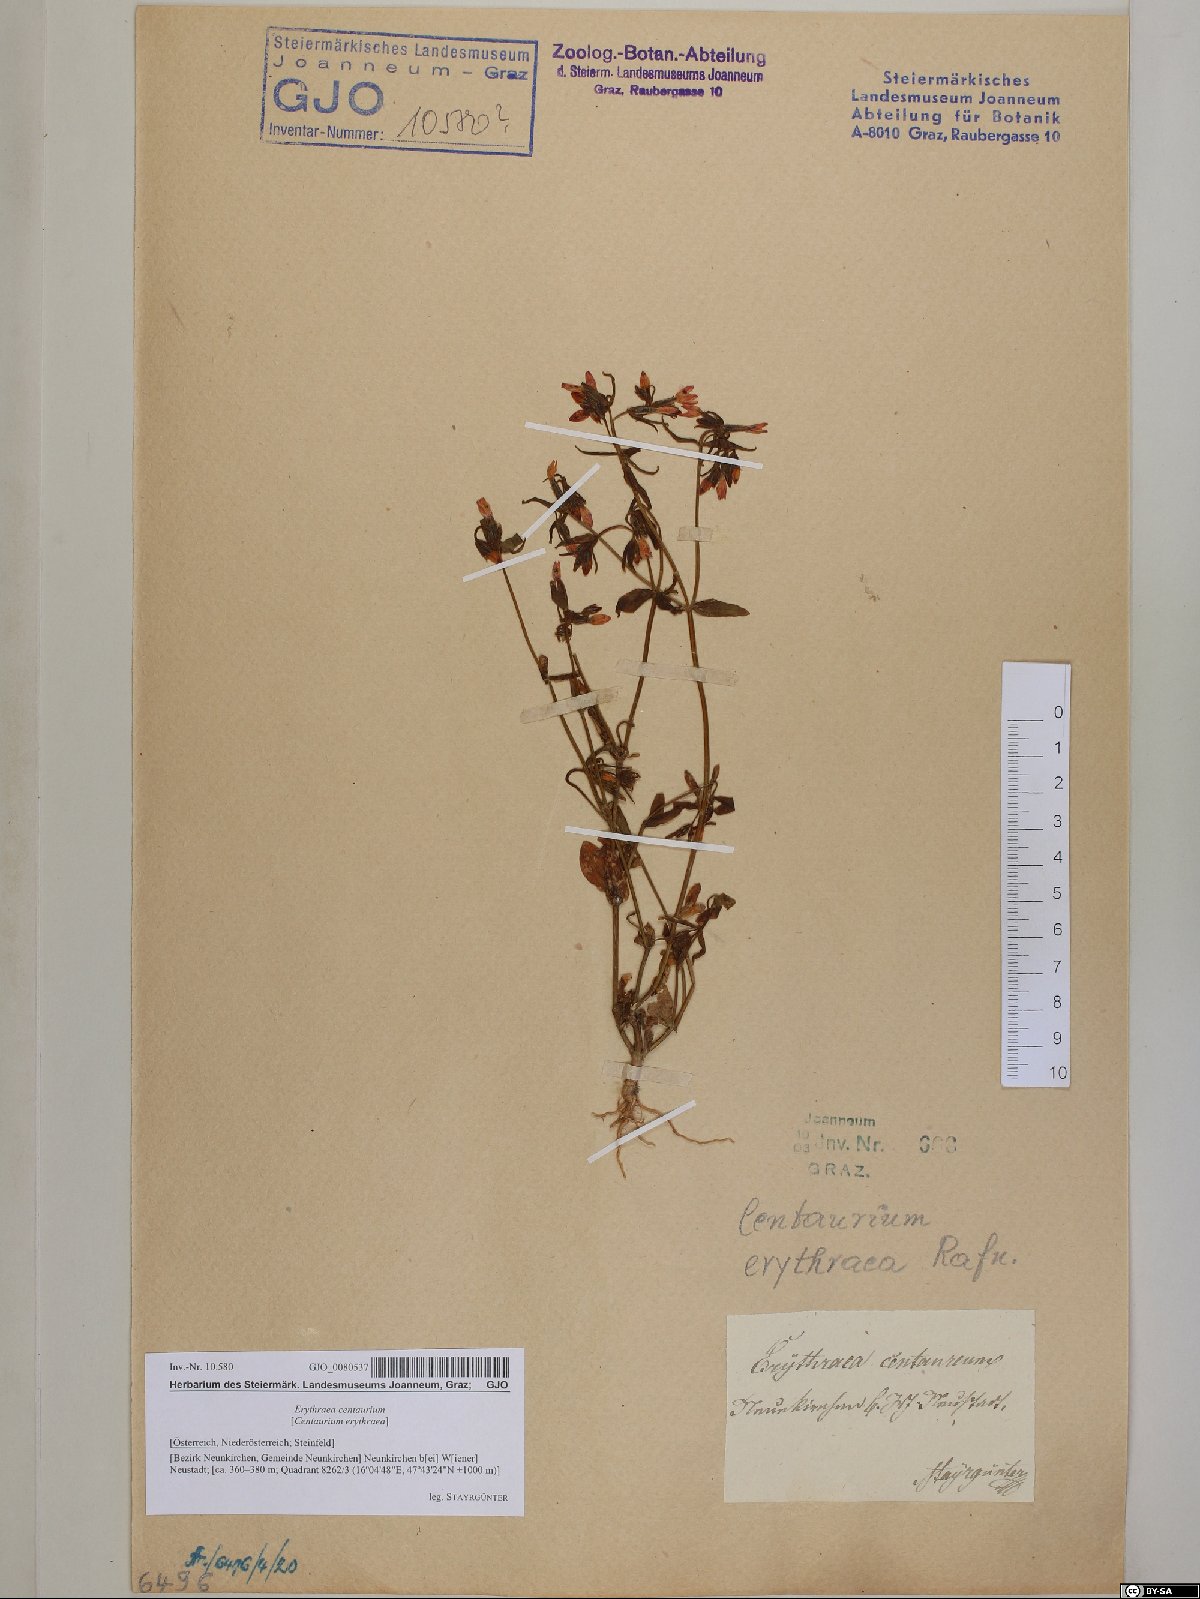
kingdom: Plantae
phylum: Tracheophyta
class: Magnoliopsida
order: Gentianales
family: Gentianaceae
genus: Centaurium
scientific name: Centaurium erythraea
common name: Common centaury
